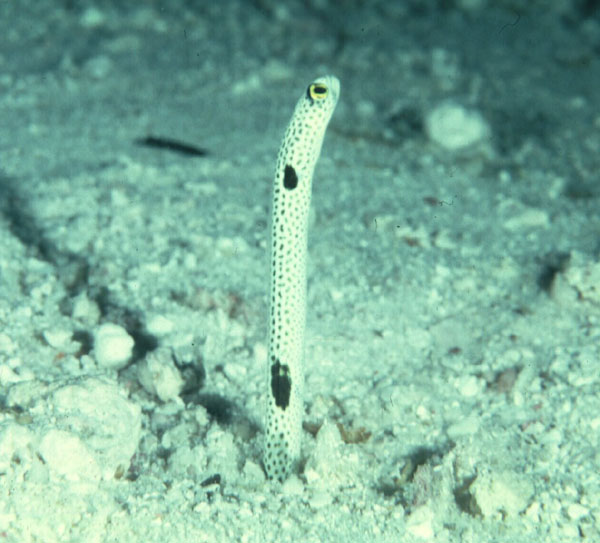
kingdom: Animalia
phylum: Chordata
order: Anguilliformes
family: Congridae
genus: Heteroconger
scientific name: Heteroconger hassi
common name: Spotted garden eel
